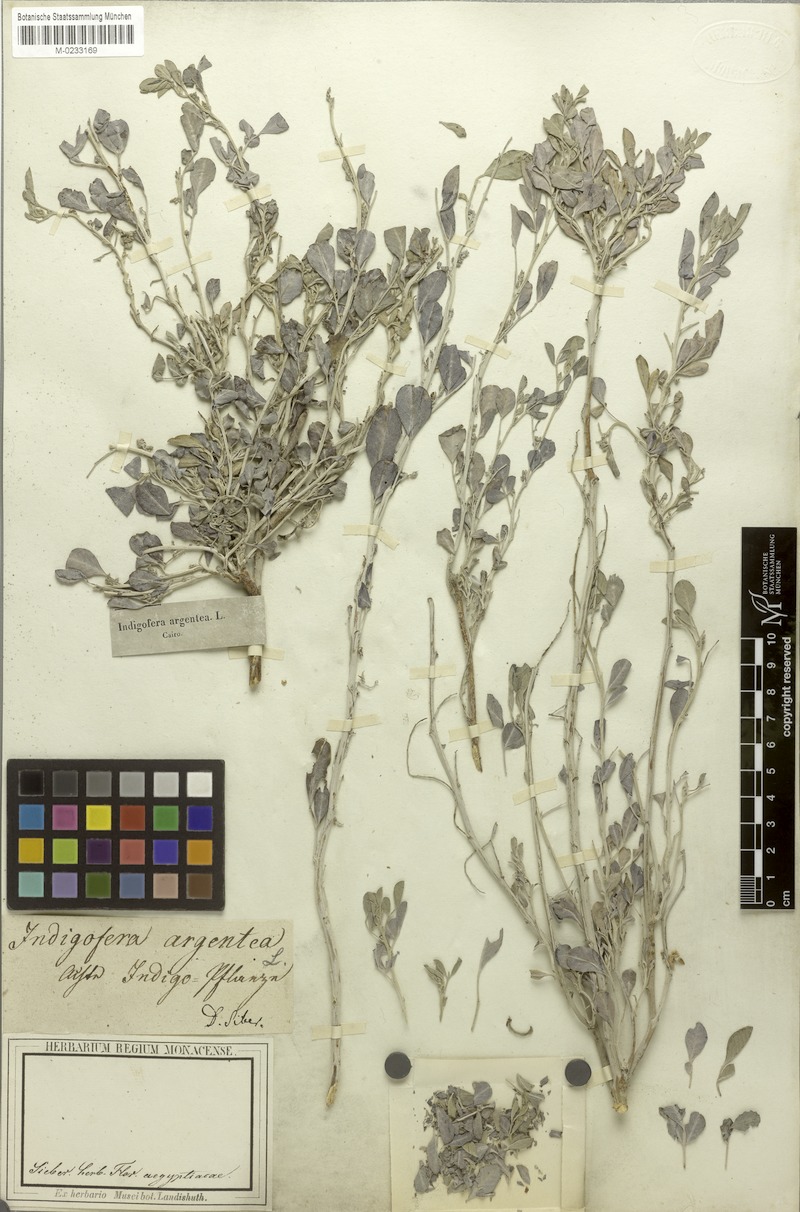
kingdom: Plantae
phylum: Tracheophyta
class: Magnoliopsida
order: Fabales
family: Fabaceae
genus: Indigofera
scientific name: Indigofera argentea
